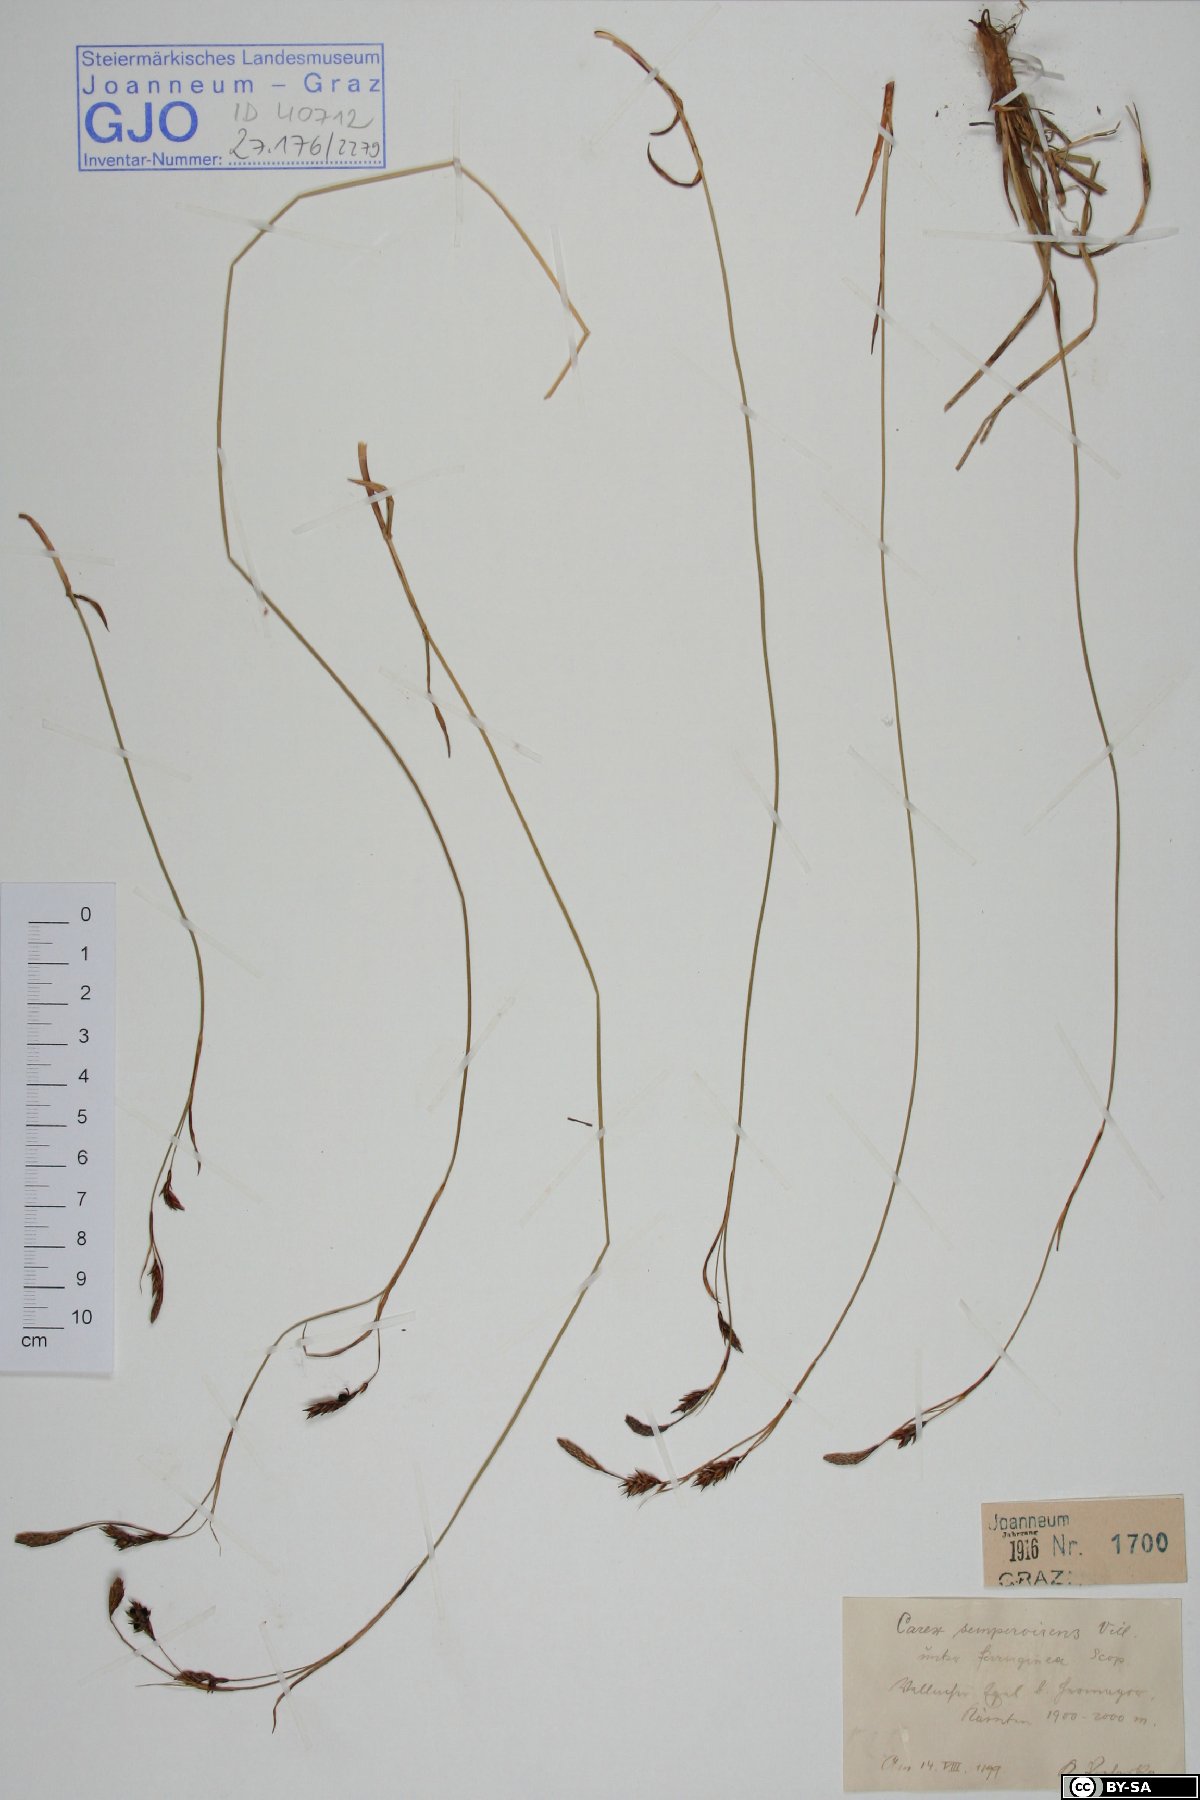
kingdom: Plantae
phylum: Tracheophyta
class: Liliopsida
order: Poales
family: Cyperaceae
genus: Carex
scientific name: Carex sempervirens
